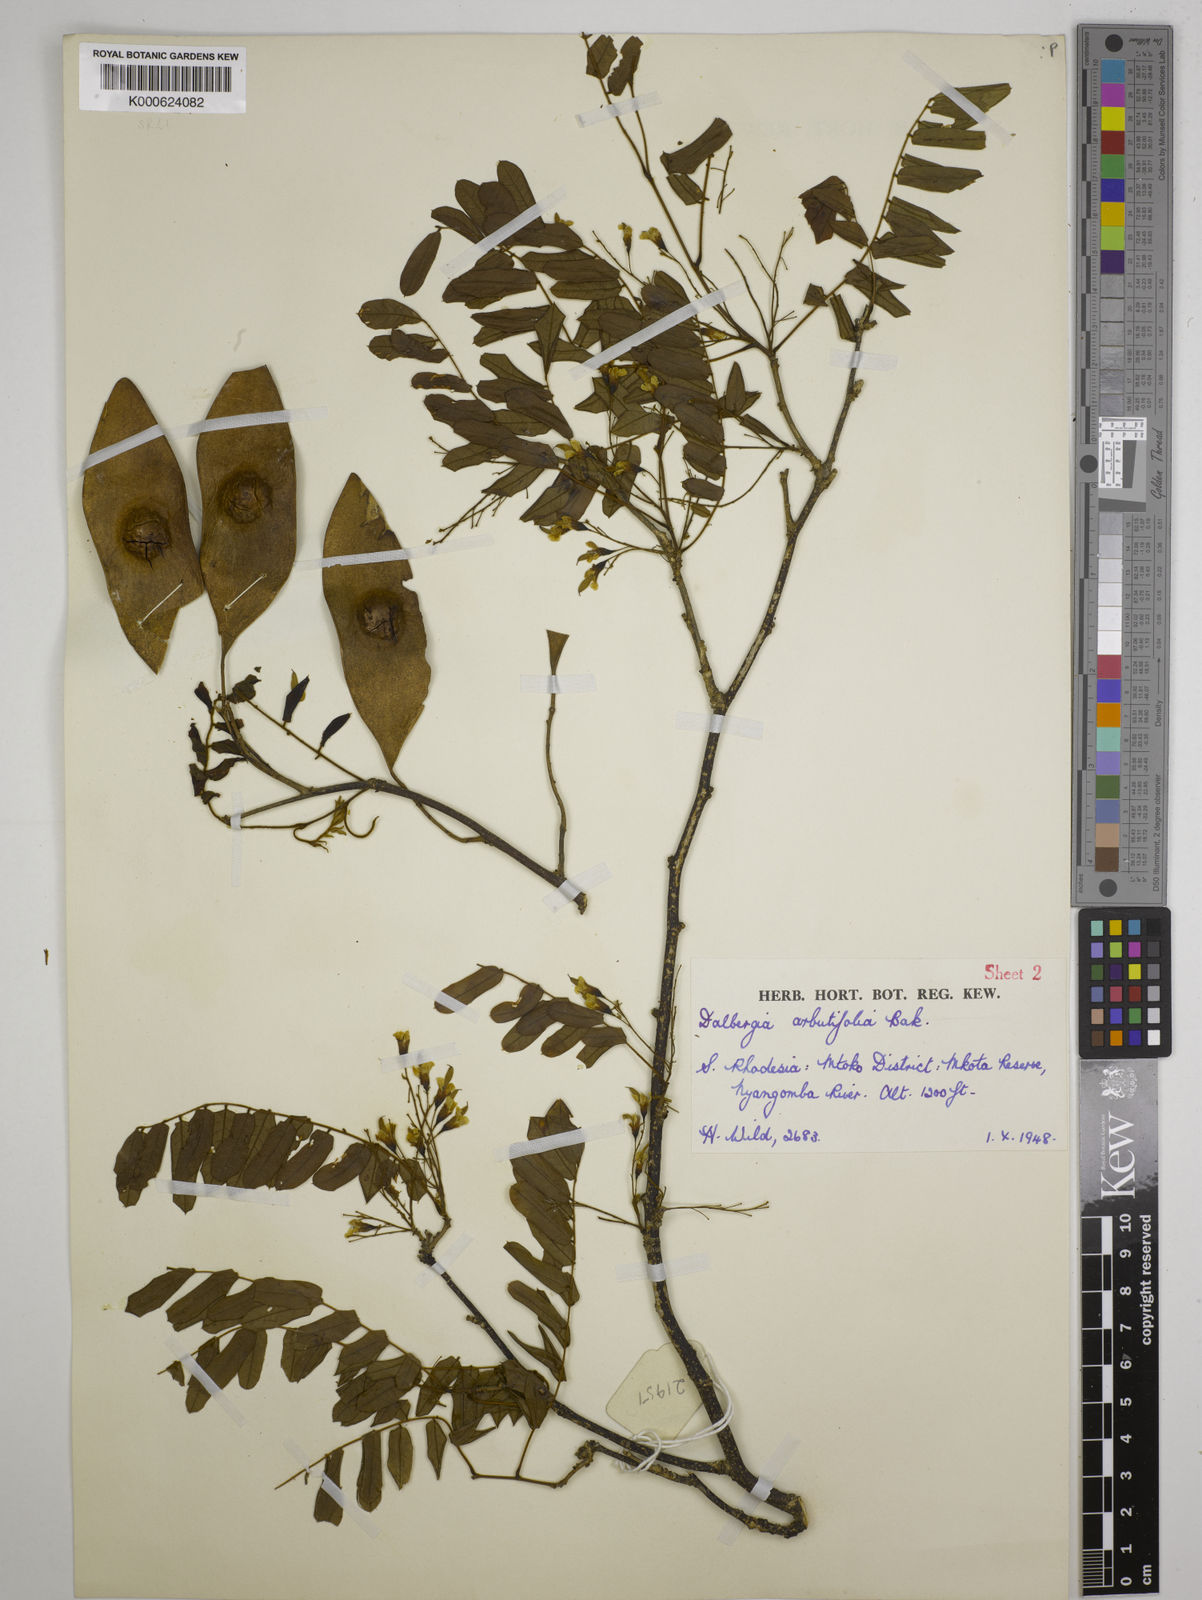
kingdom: Plantae
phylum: Tracheophyta
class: Magnoliopsida
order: Fabales
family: Fabaceae
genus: Dalbergia
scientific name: Dalbergia arbutifolia
